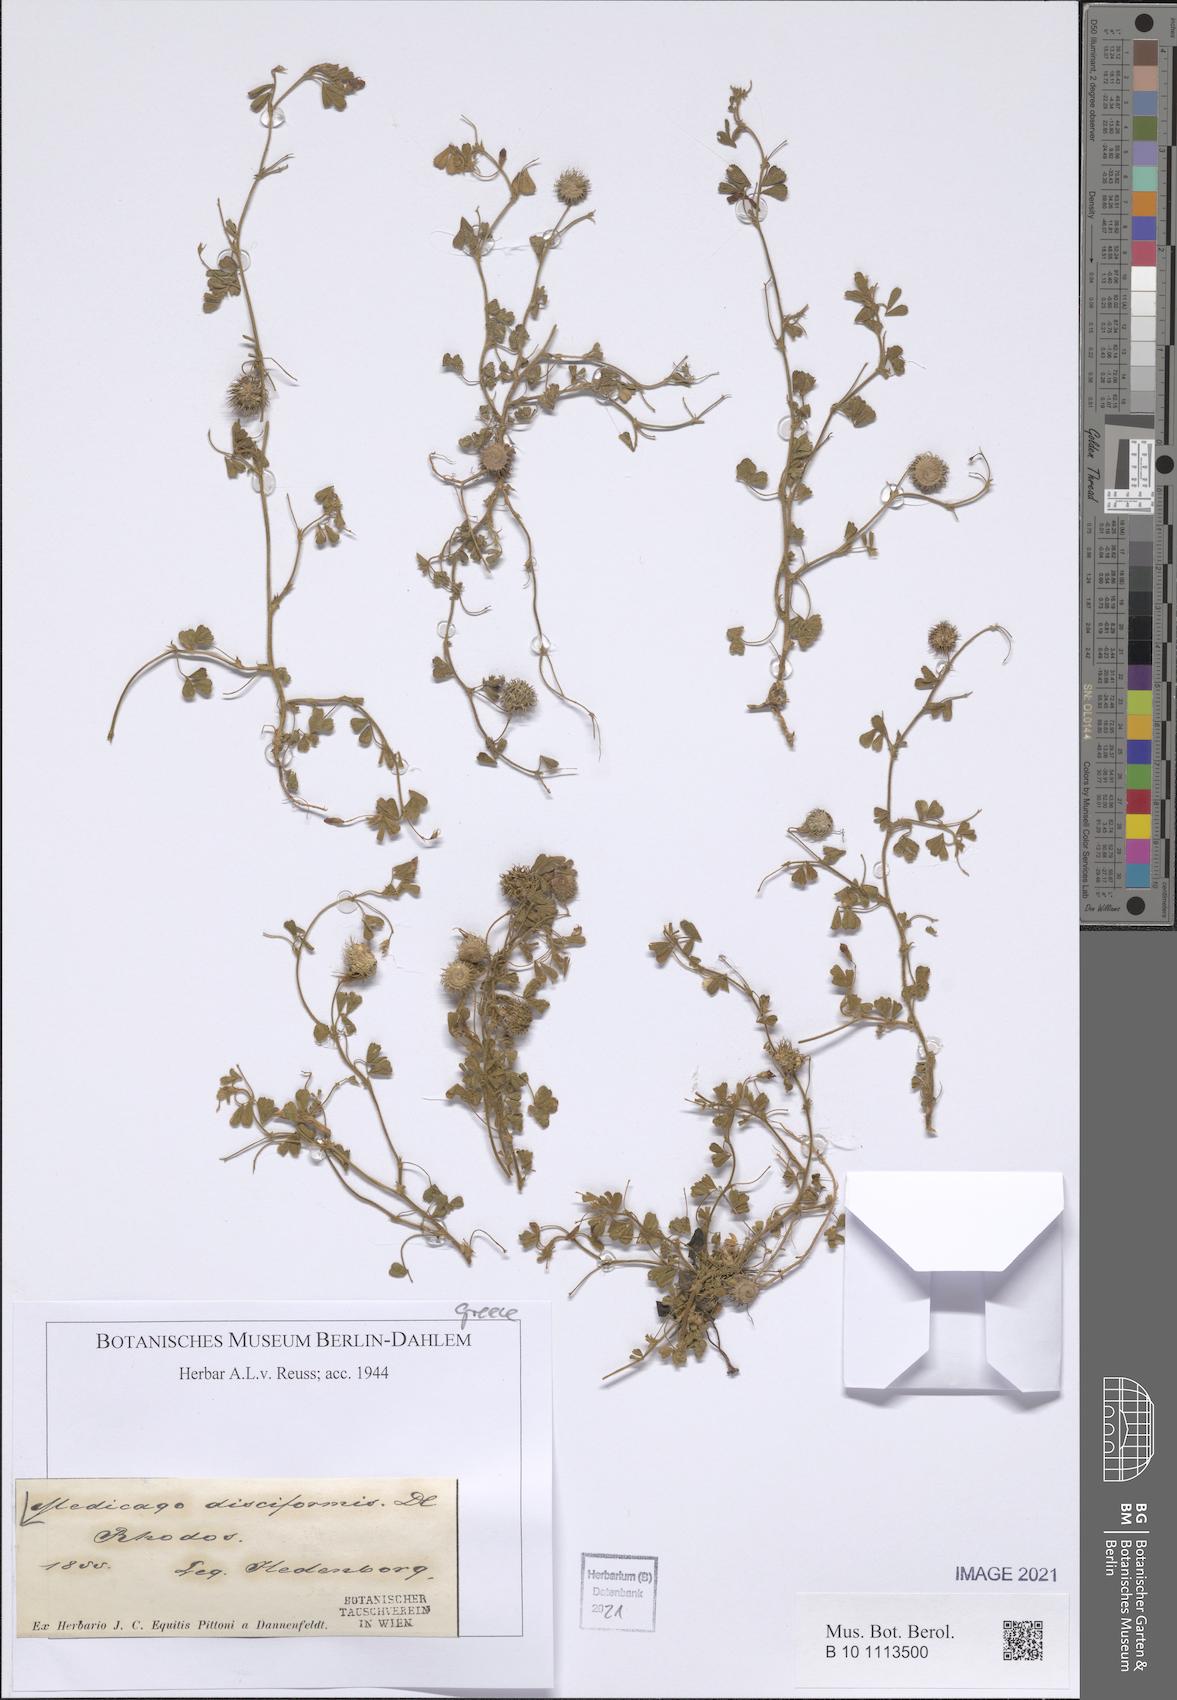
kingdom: Plantae
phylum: Tracheophyta
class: Magnoliopsida
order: Fabales
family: Fabaceae
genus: Medicago
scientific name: Medicago disciformis
